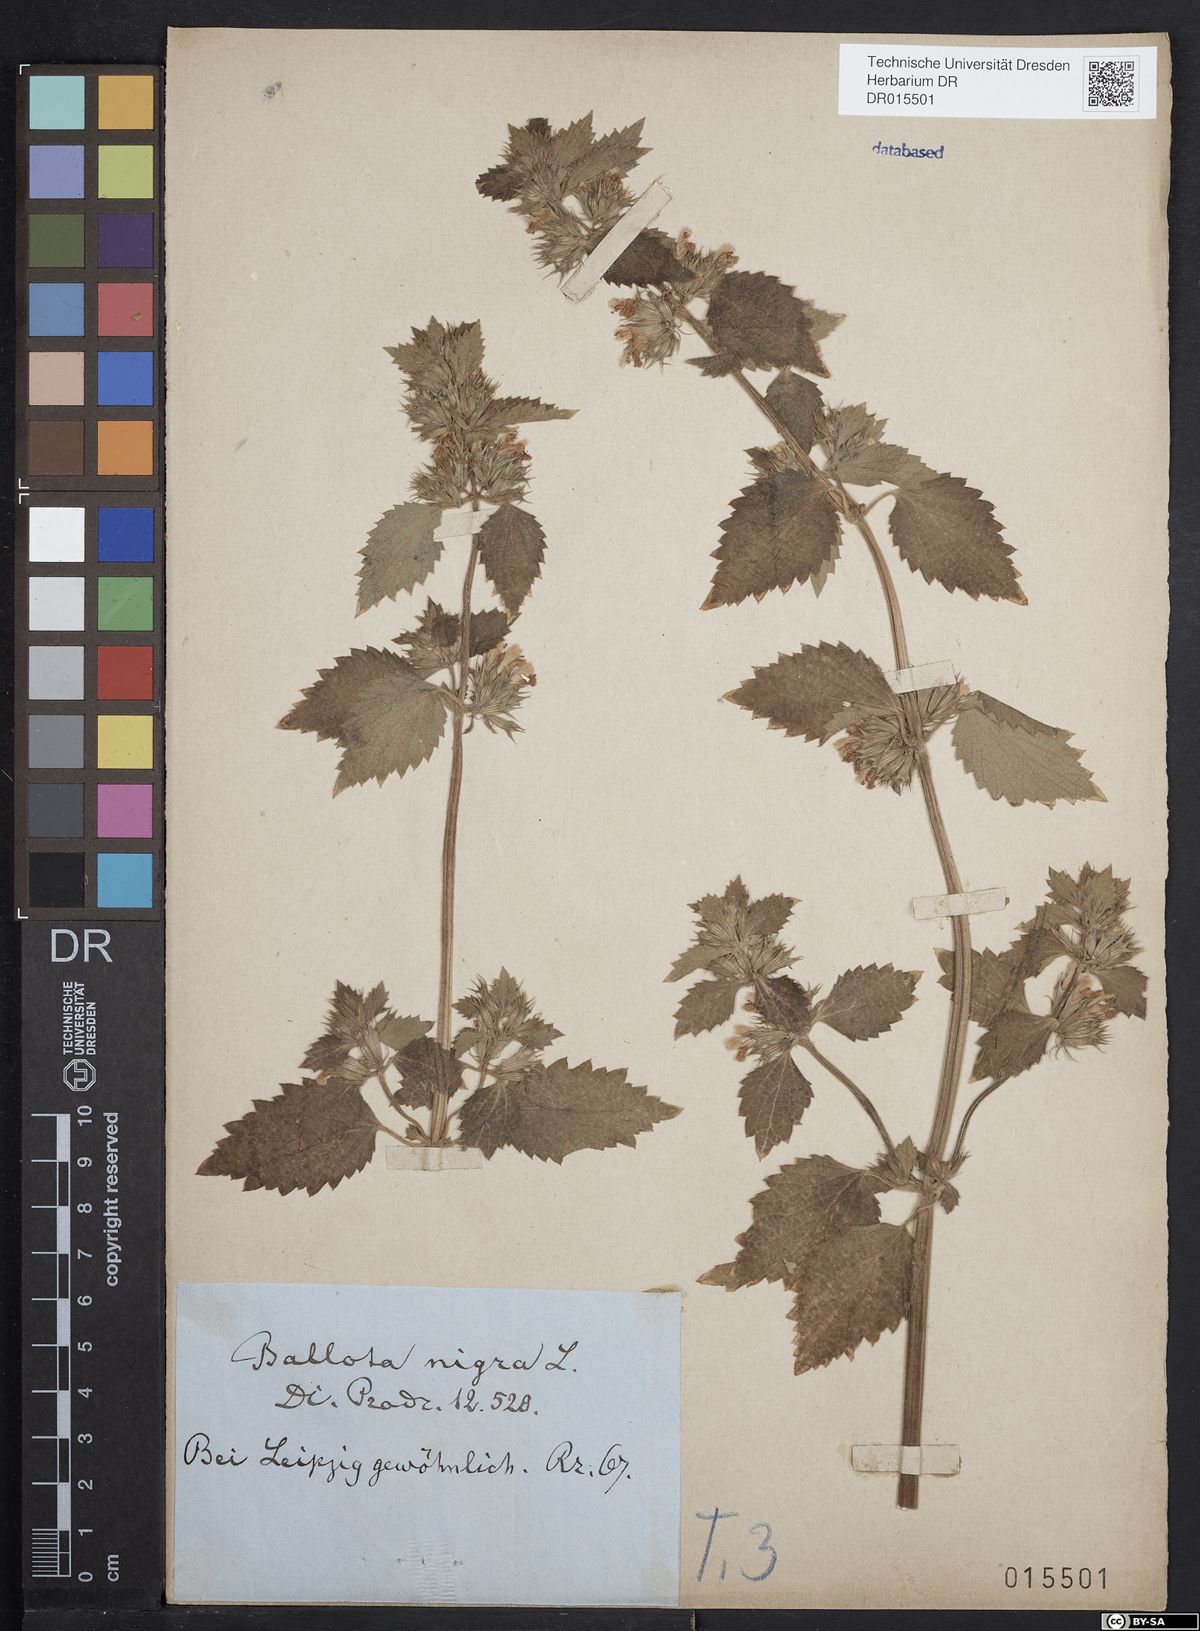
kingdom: Plantae
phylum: Tracheophyta
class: Magnoliopsida
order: Lamiales
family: Lamiaceae
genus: Ballota
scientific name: Ballota nigra
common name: Black horehound
